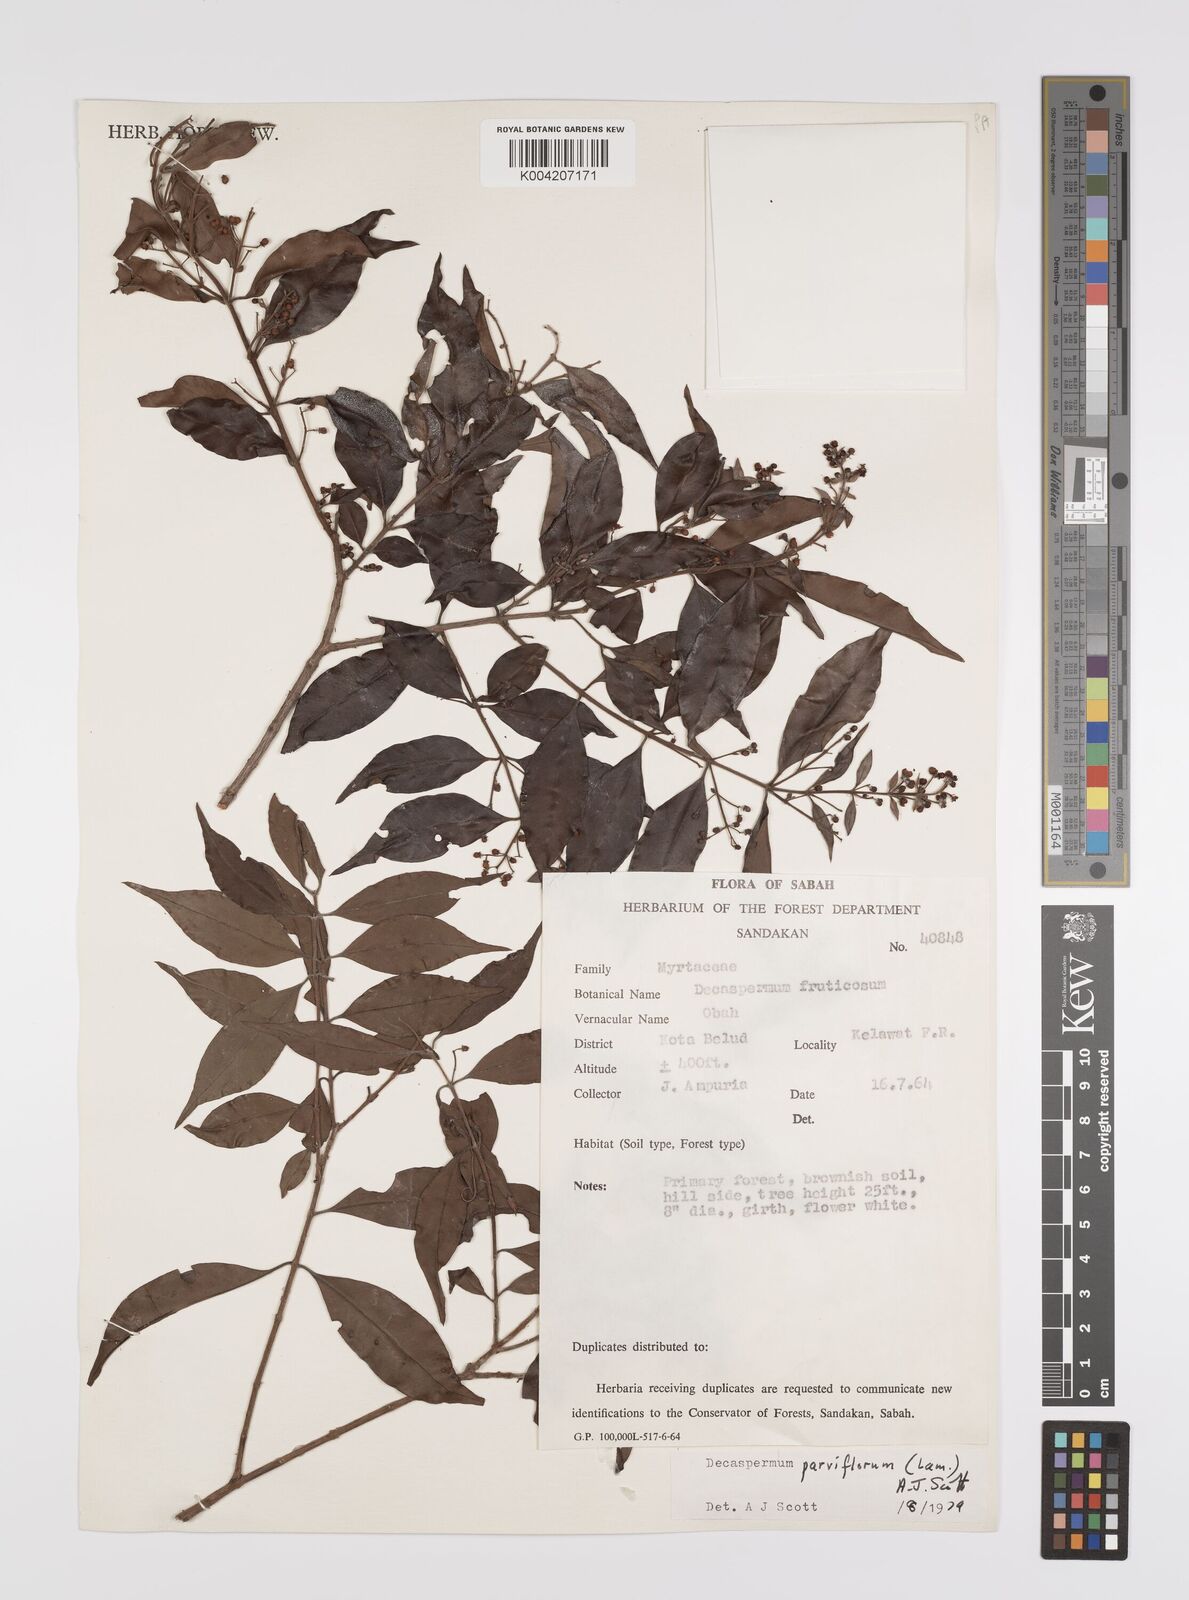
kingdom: Plantae
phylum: Tracheophyta
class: Magnoliopsida
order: Myrtales
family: Myrtaceae
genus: Decaspermum
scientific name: Decaspermum fruticosum
